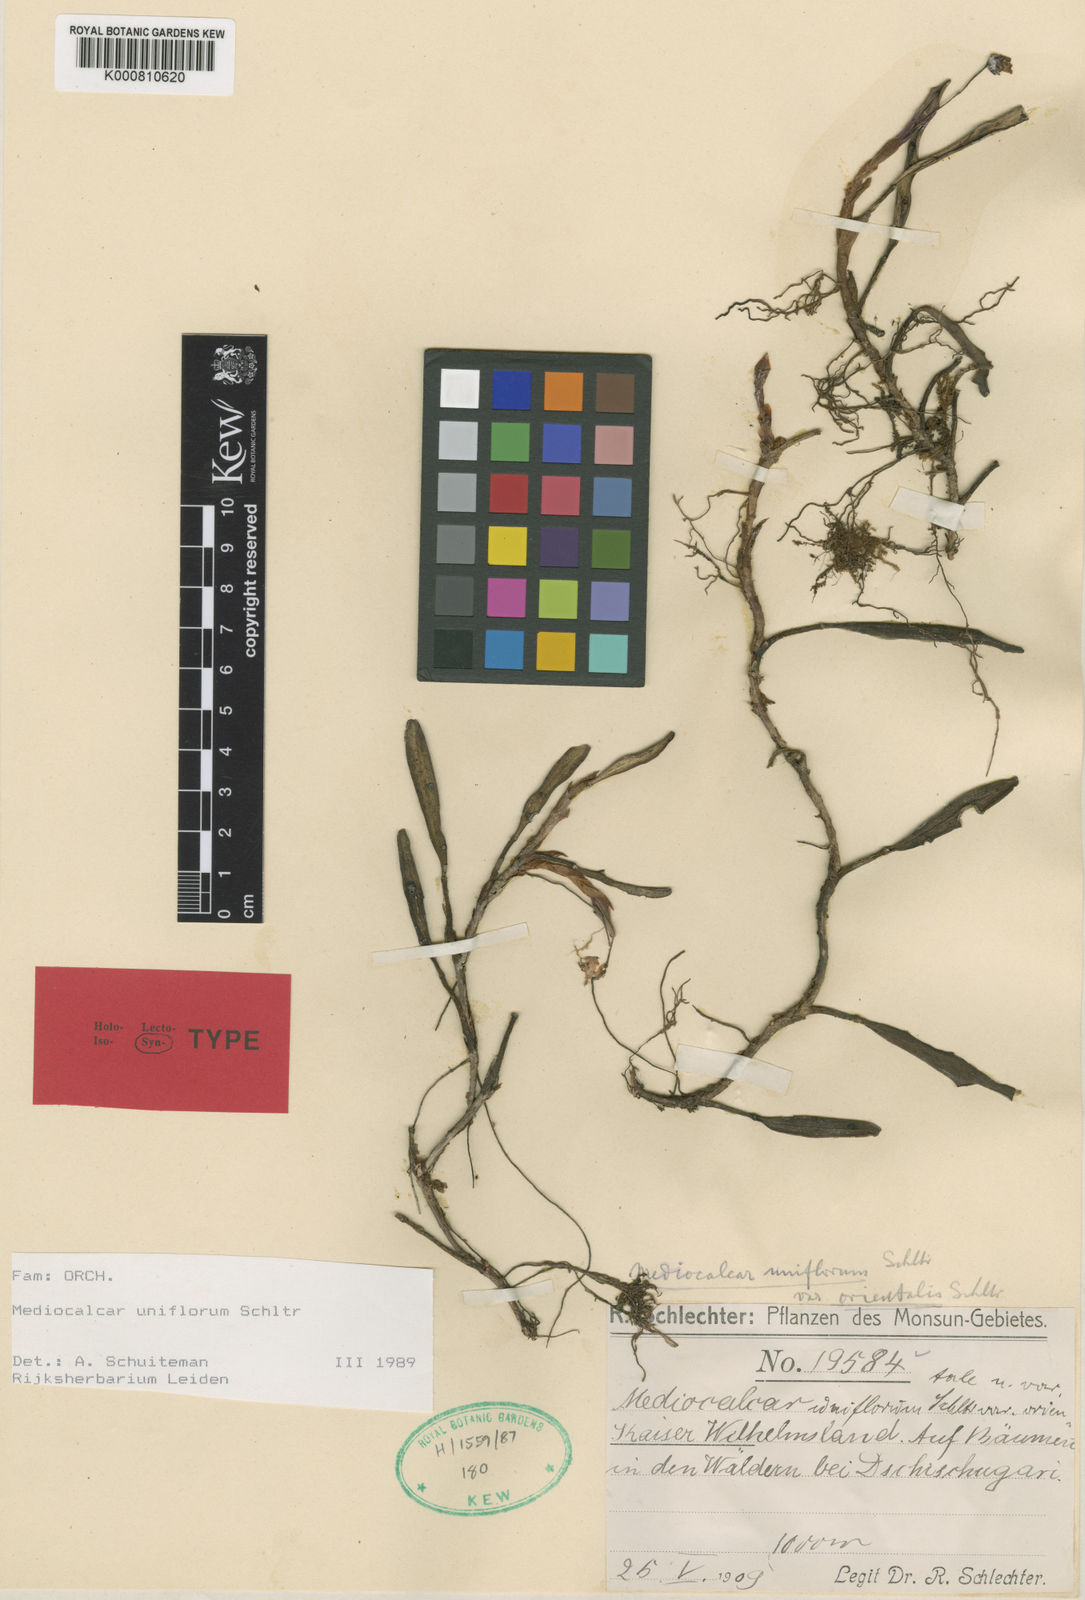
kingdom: Plantae
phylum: Tracheophyta
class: Liliopsida
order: Asparagales
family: Orchidaceae
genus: Mediocalcar
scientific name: Mediocalcar uniflorum
